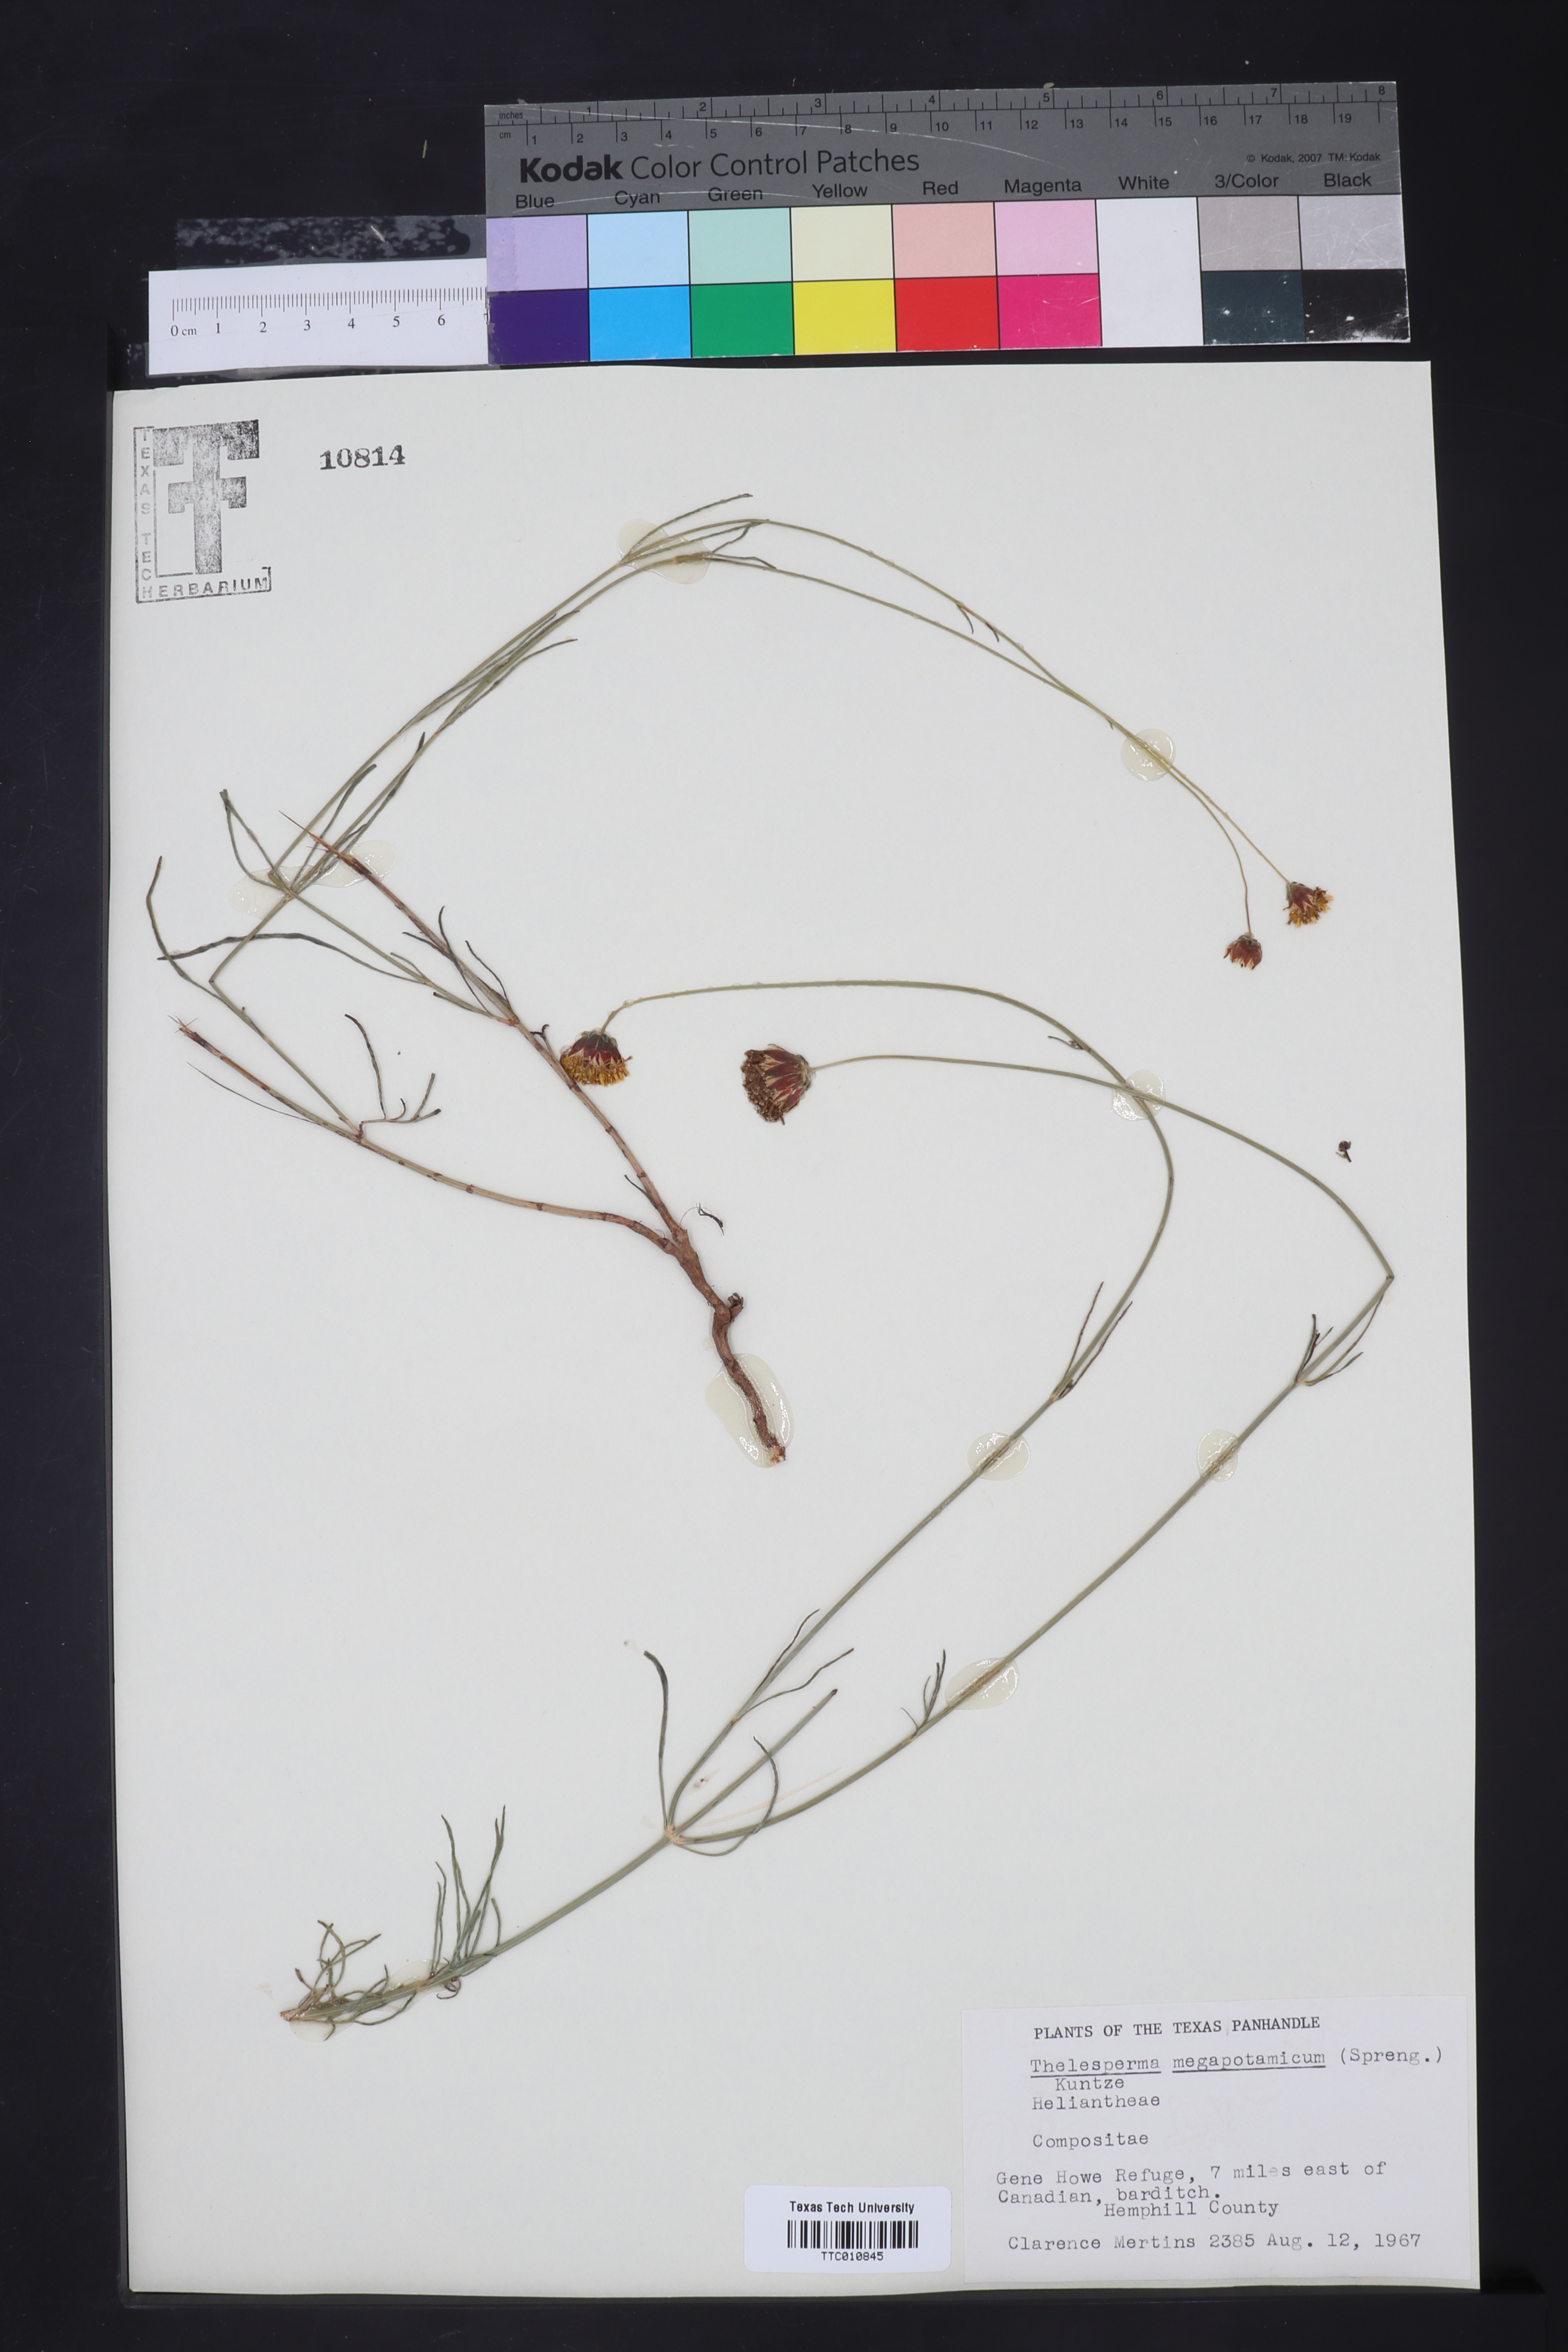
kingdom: Plantae
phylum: Tracheophyta
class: Magnoliopsida
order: Asterales
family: Asteraceae
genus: Thelesperma
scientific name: Thelesperma megapotamicum
